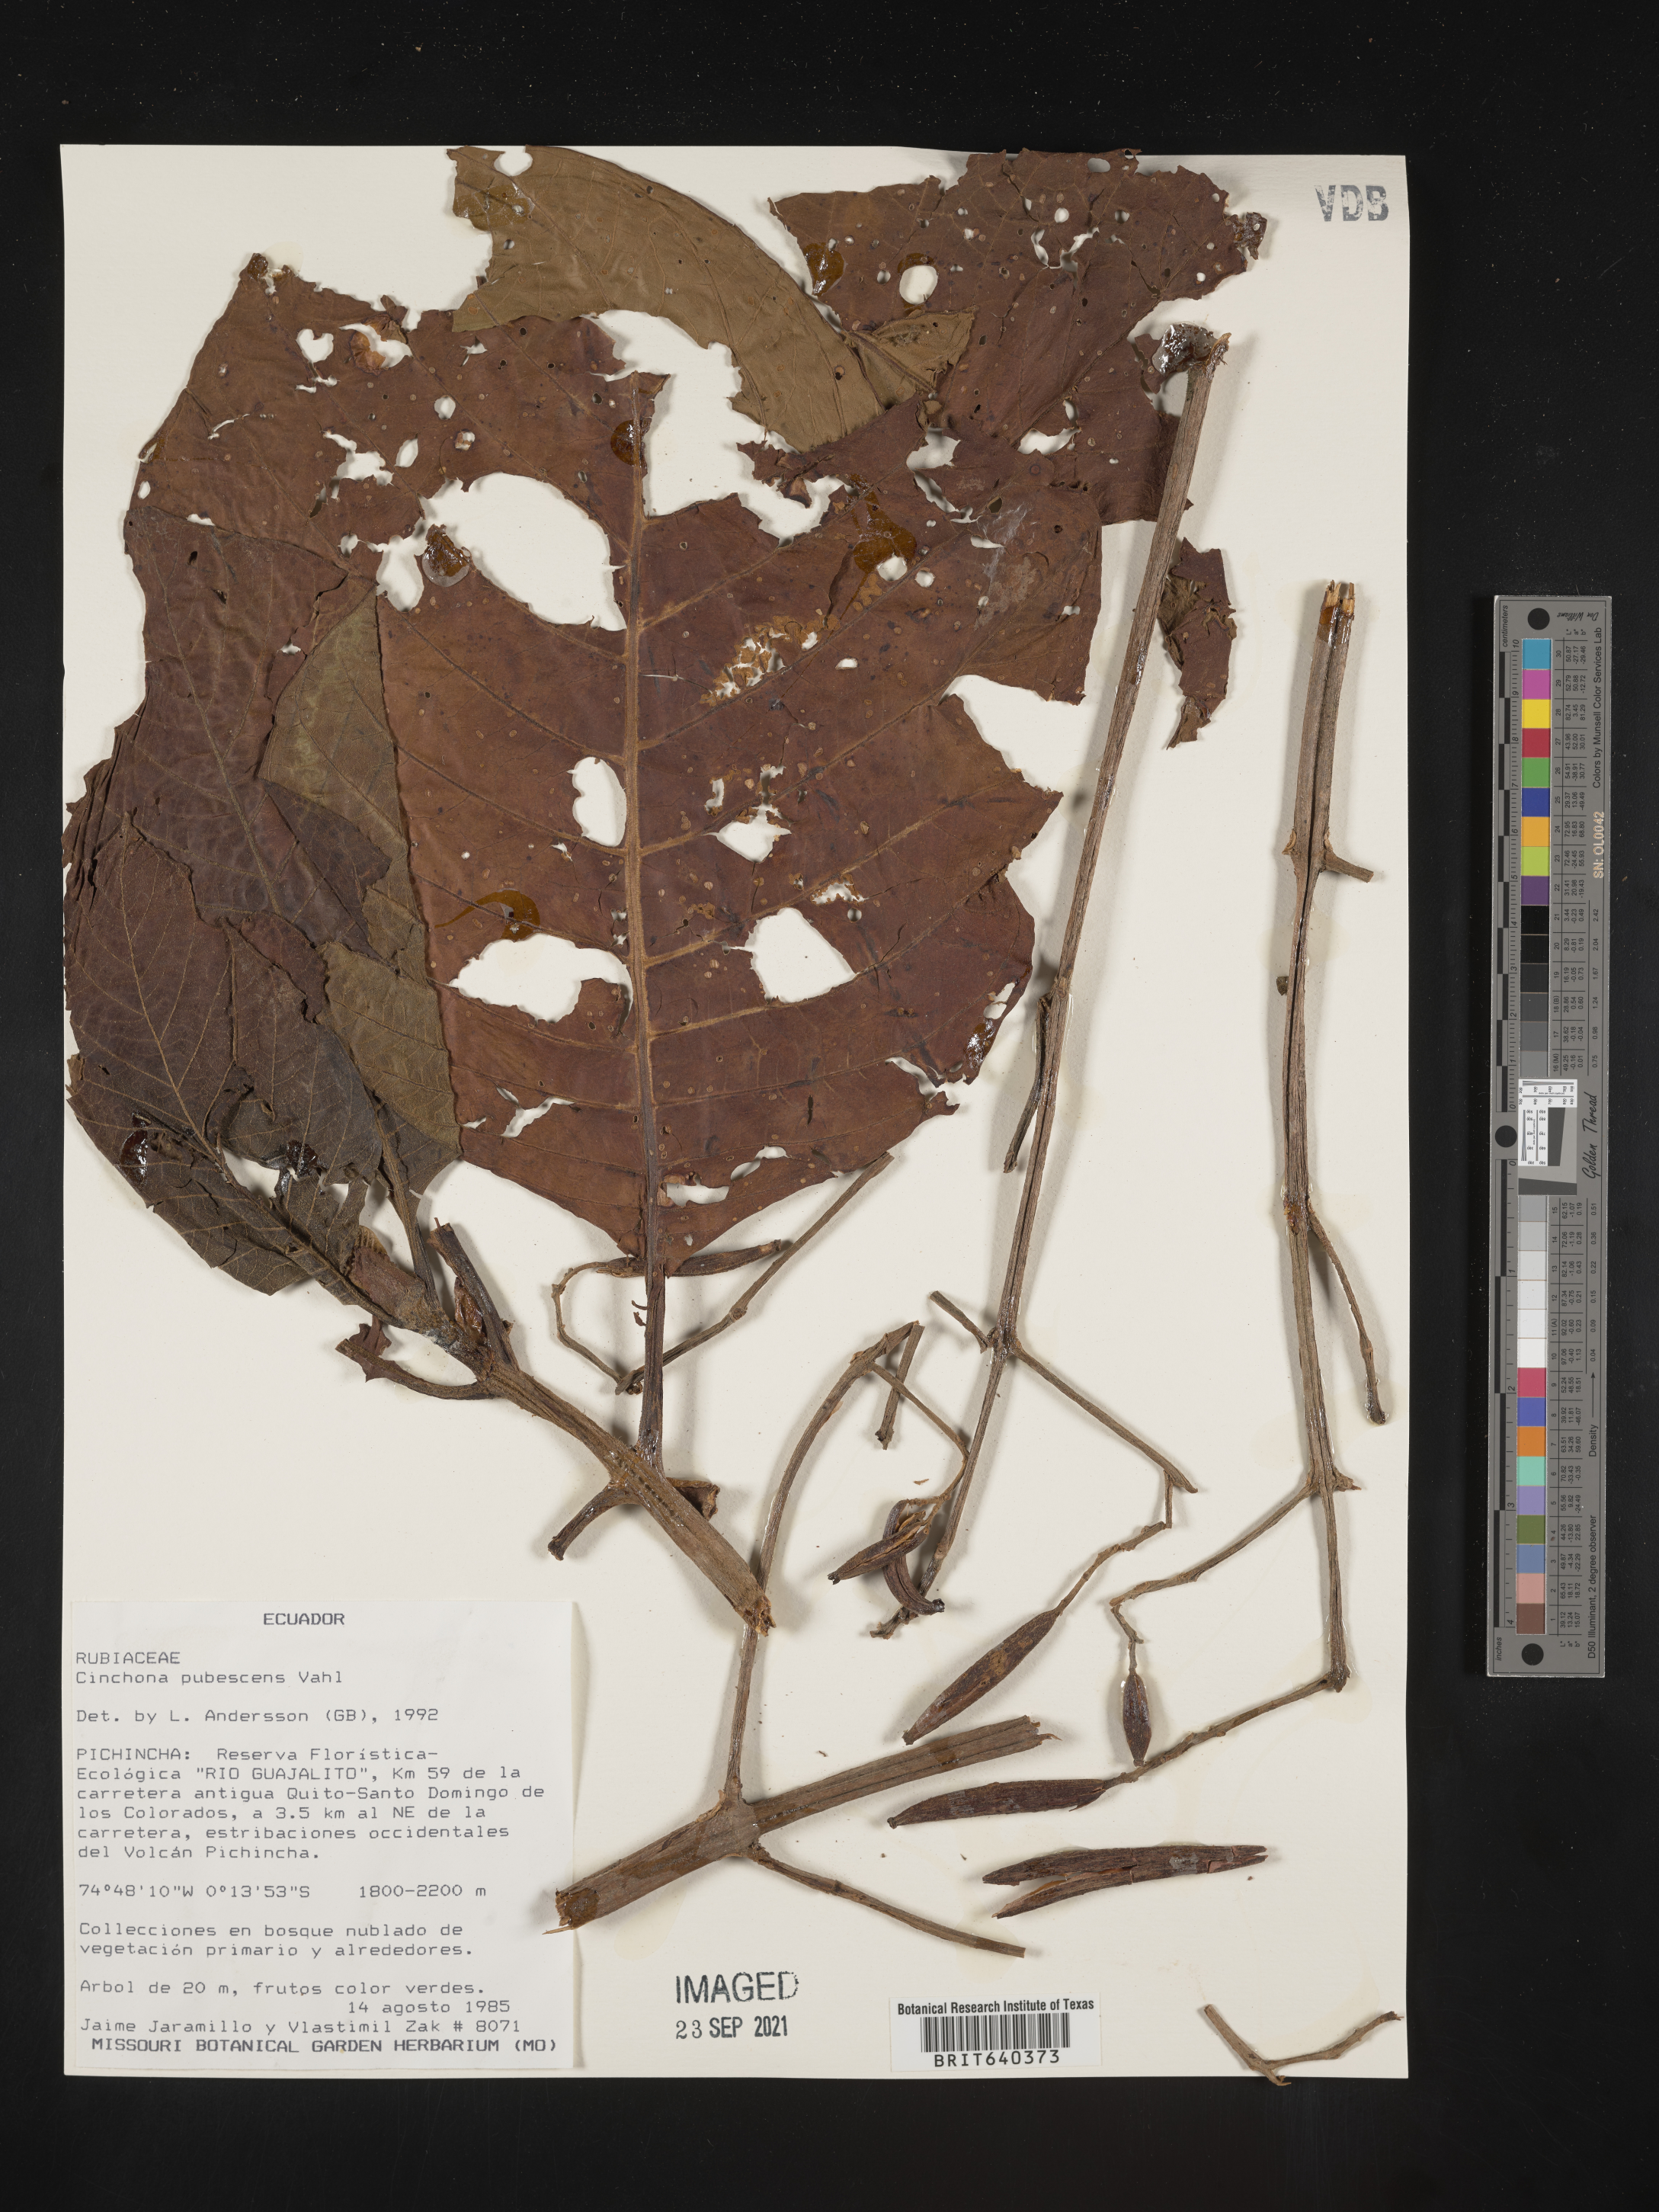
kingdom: Plantae
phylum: Tracheophyta
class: Magnoliopsida
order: Gentianales
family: Rubiaceae
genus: Cinchona
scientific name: Cinchona
